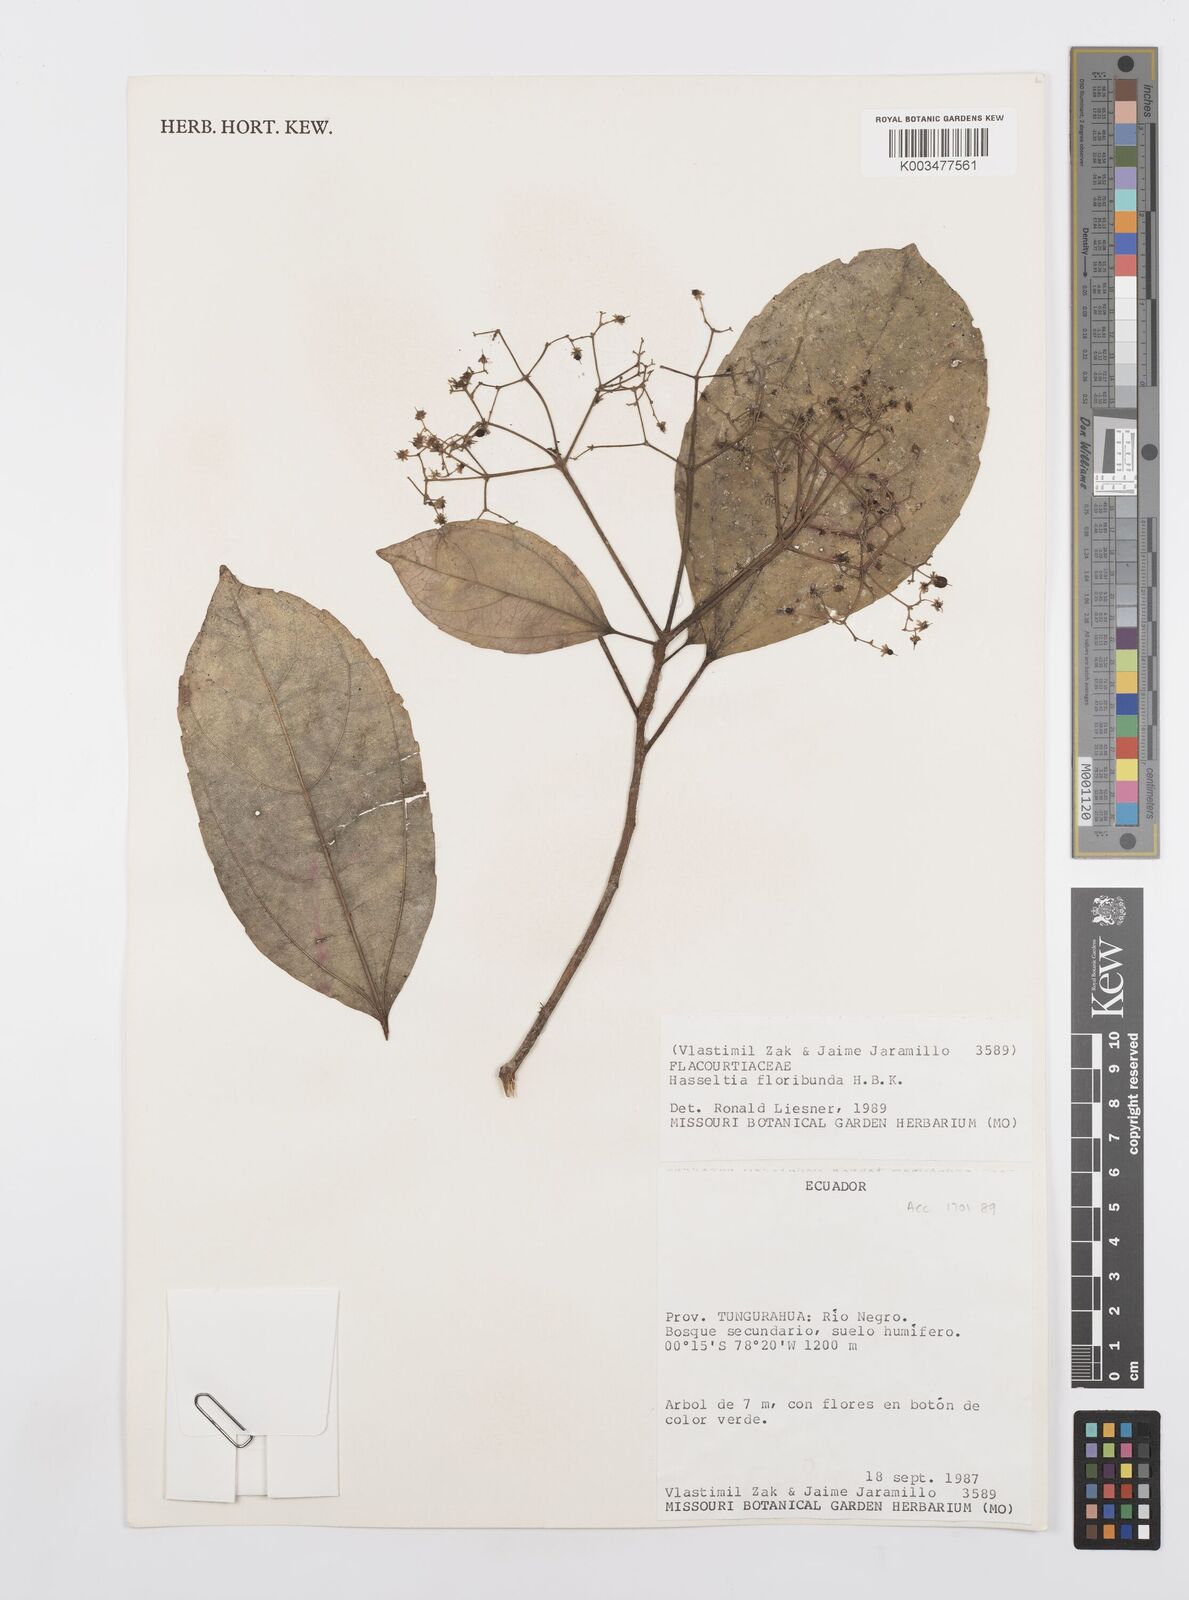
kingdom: Plantae
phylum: Tracheophyta
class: Magnoliopsida
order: Malpighiales
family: Salicaceae
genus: Hasseltia
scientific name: Hasseltia floribunda
